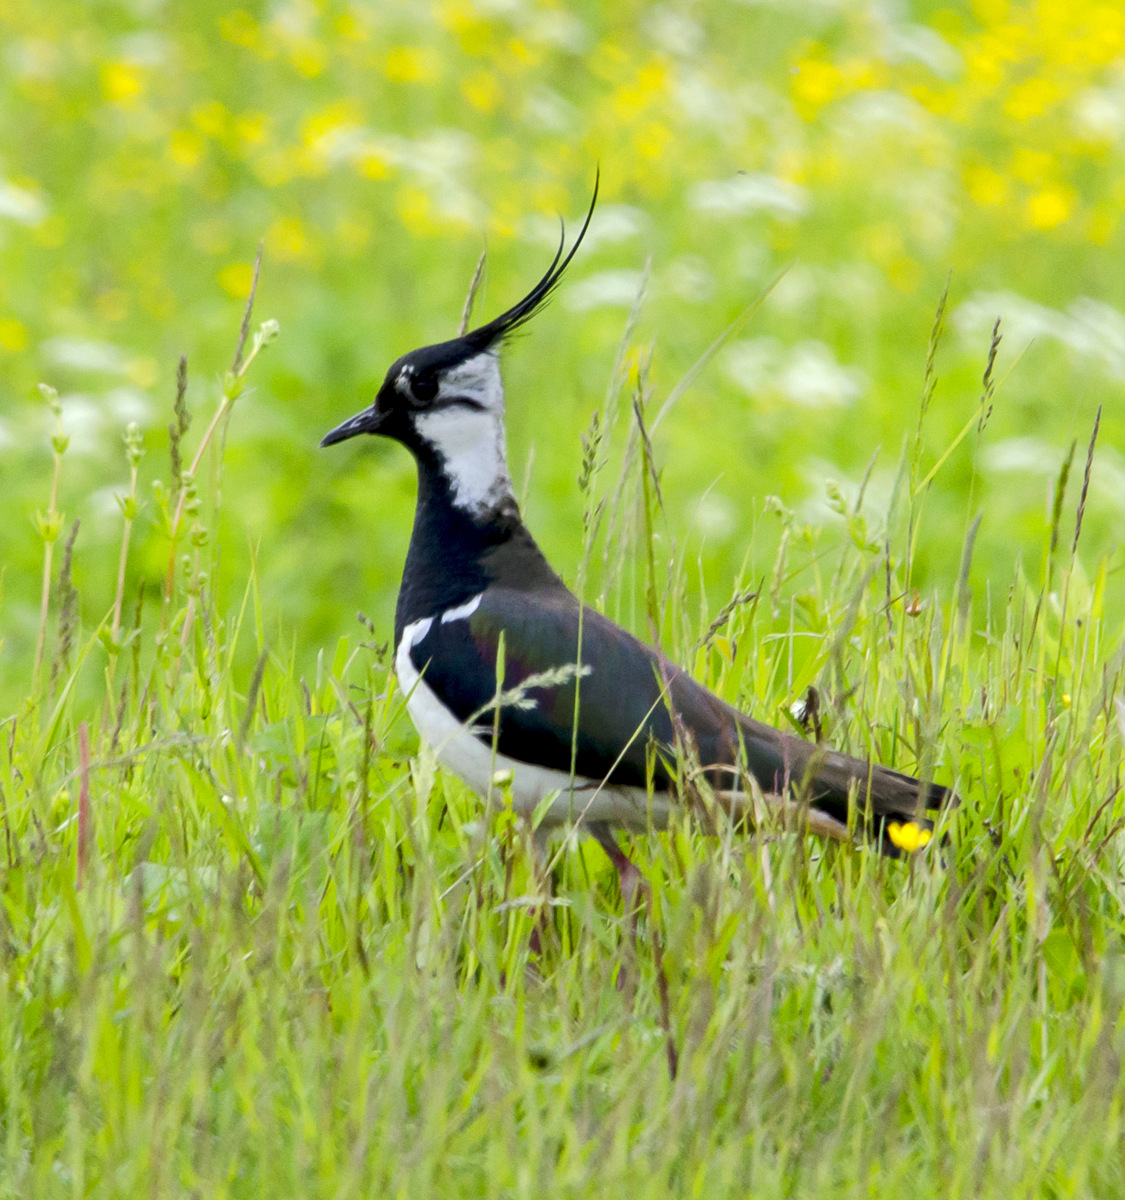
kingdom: Animalia
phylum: Chordata
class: Aves
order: Charadriiformes
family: Charadriidae
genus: Vanellus
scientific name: Vanellus vanellus
